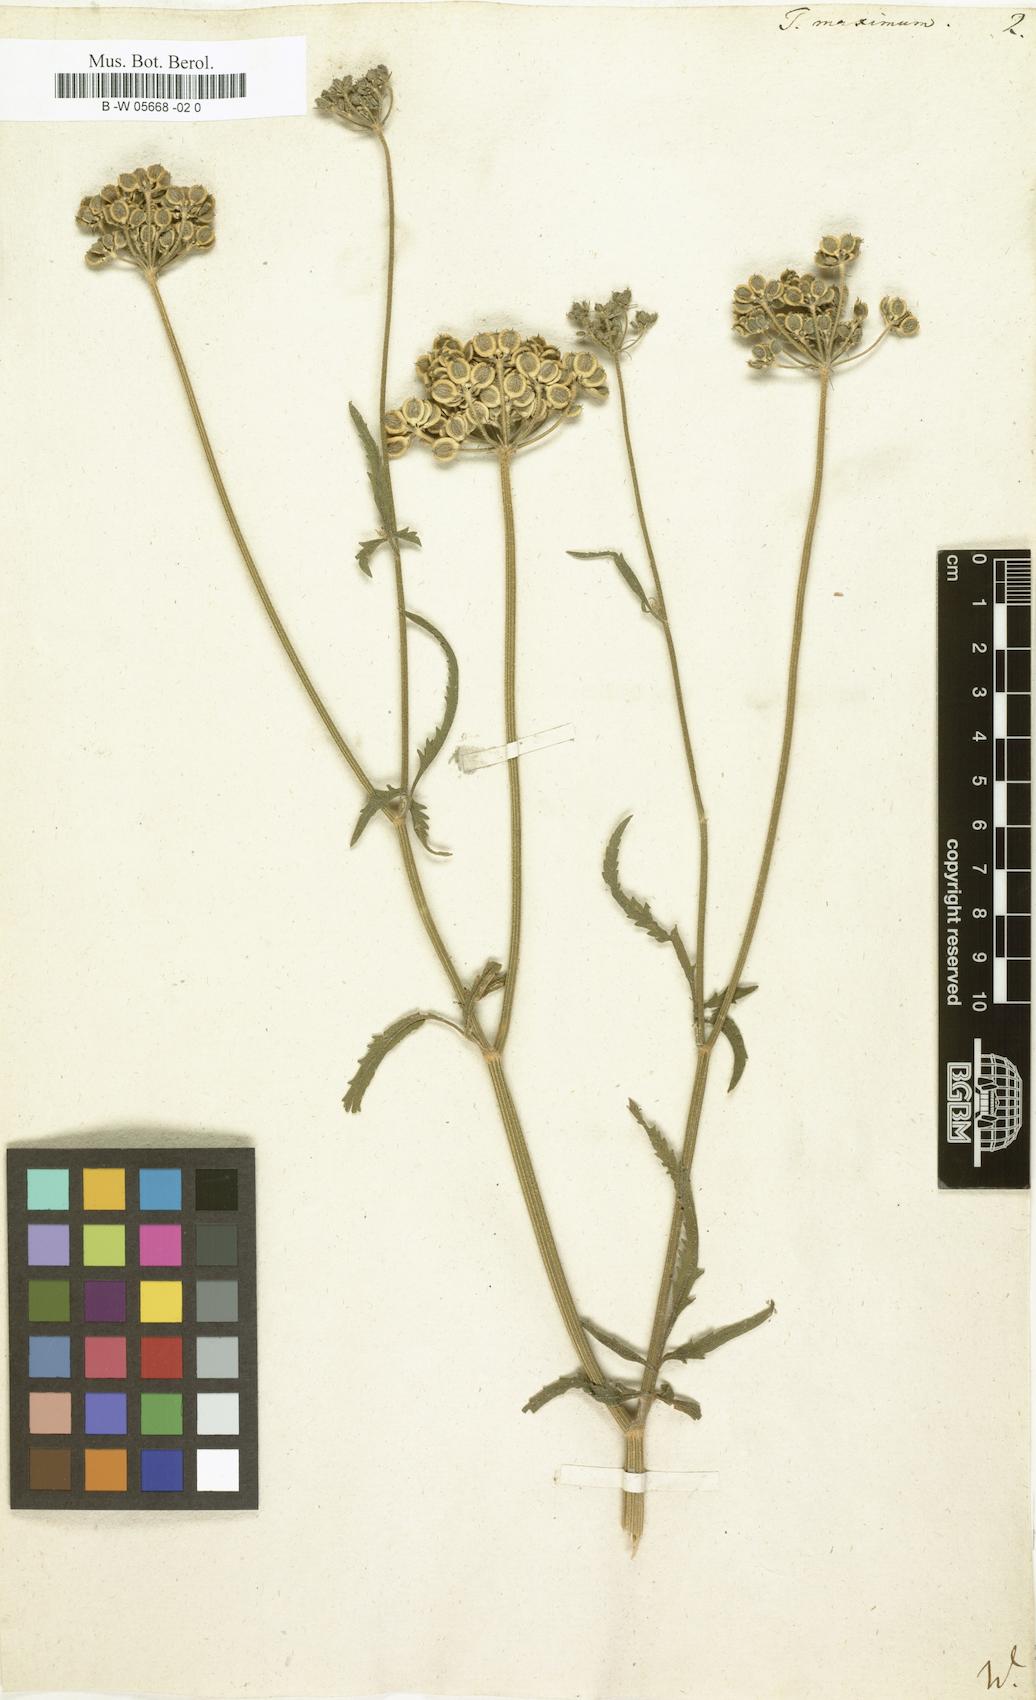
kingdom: Plantae
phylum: Tracheophyta
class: Magnoliopsida
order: Apiales
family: Apiaceae
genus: Tordylium
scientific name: Tordylium maximum
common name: Hartwort
